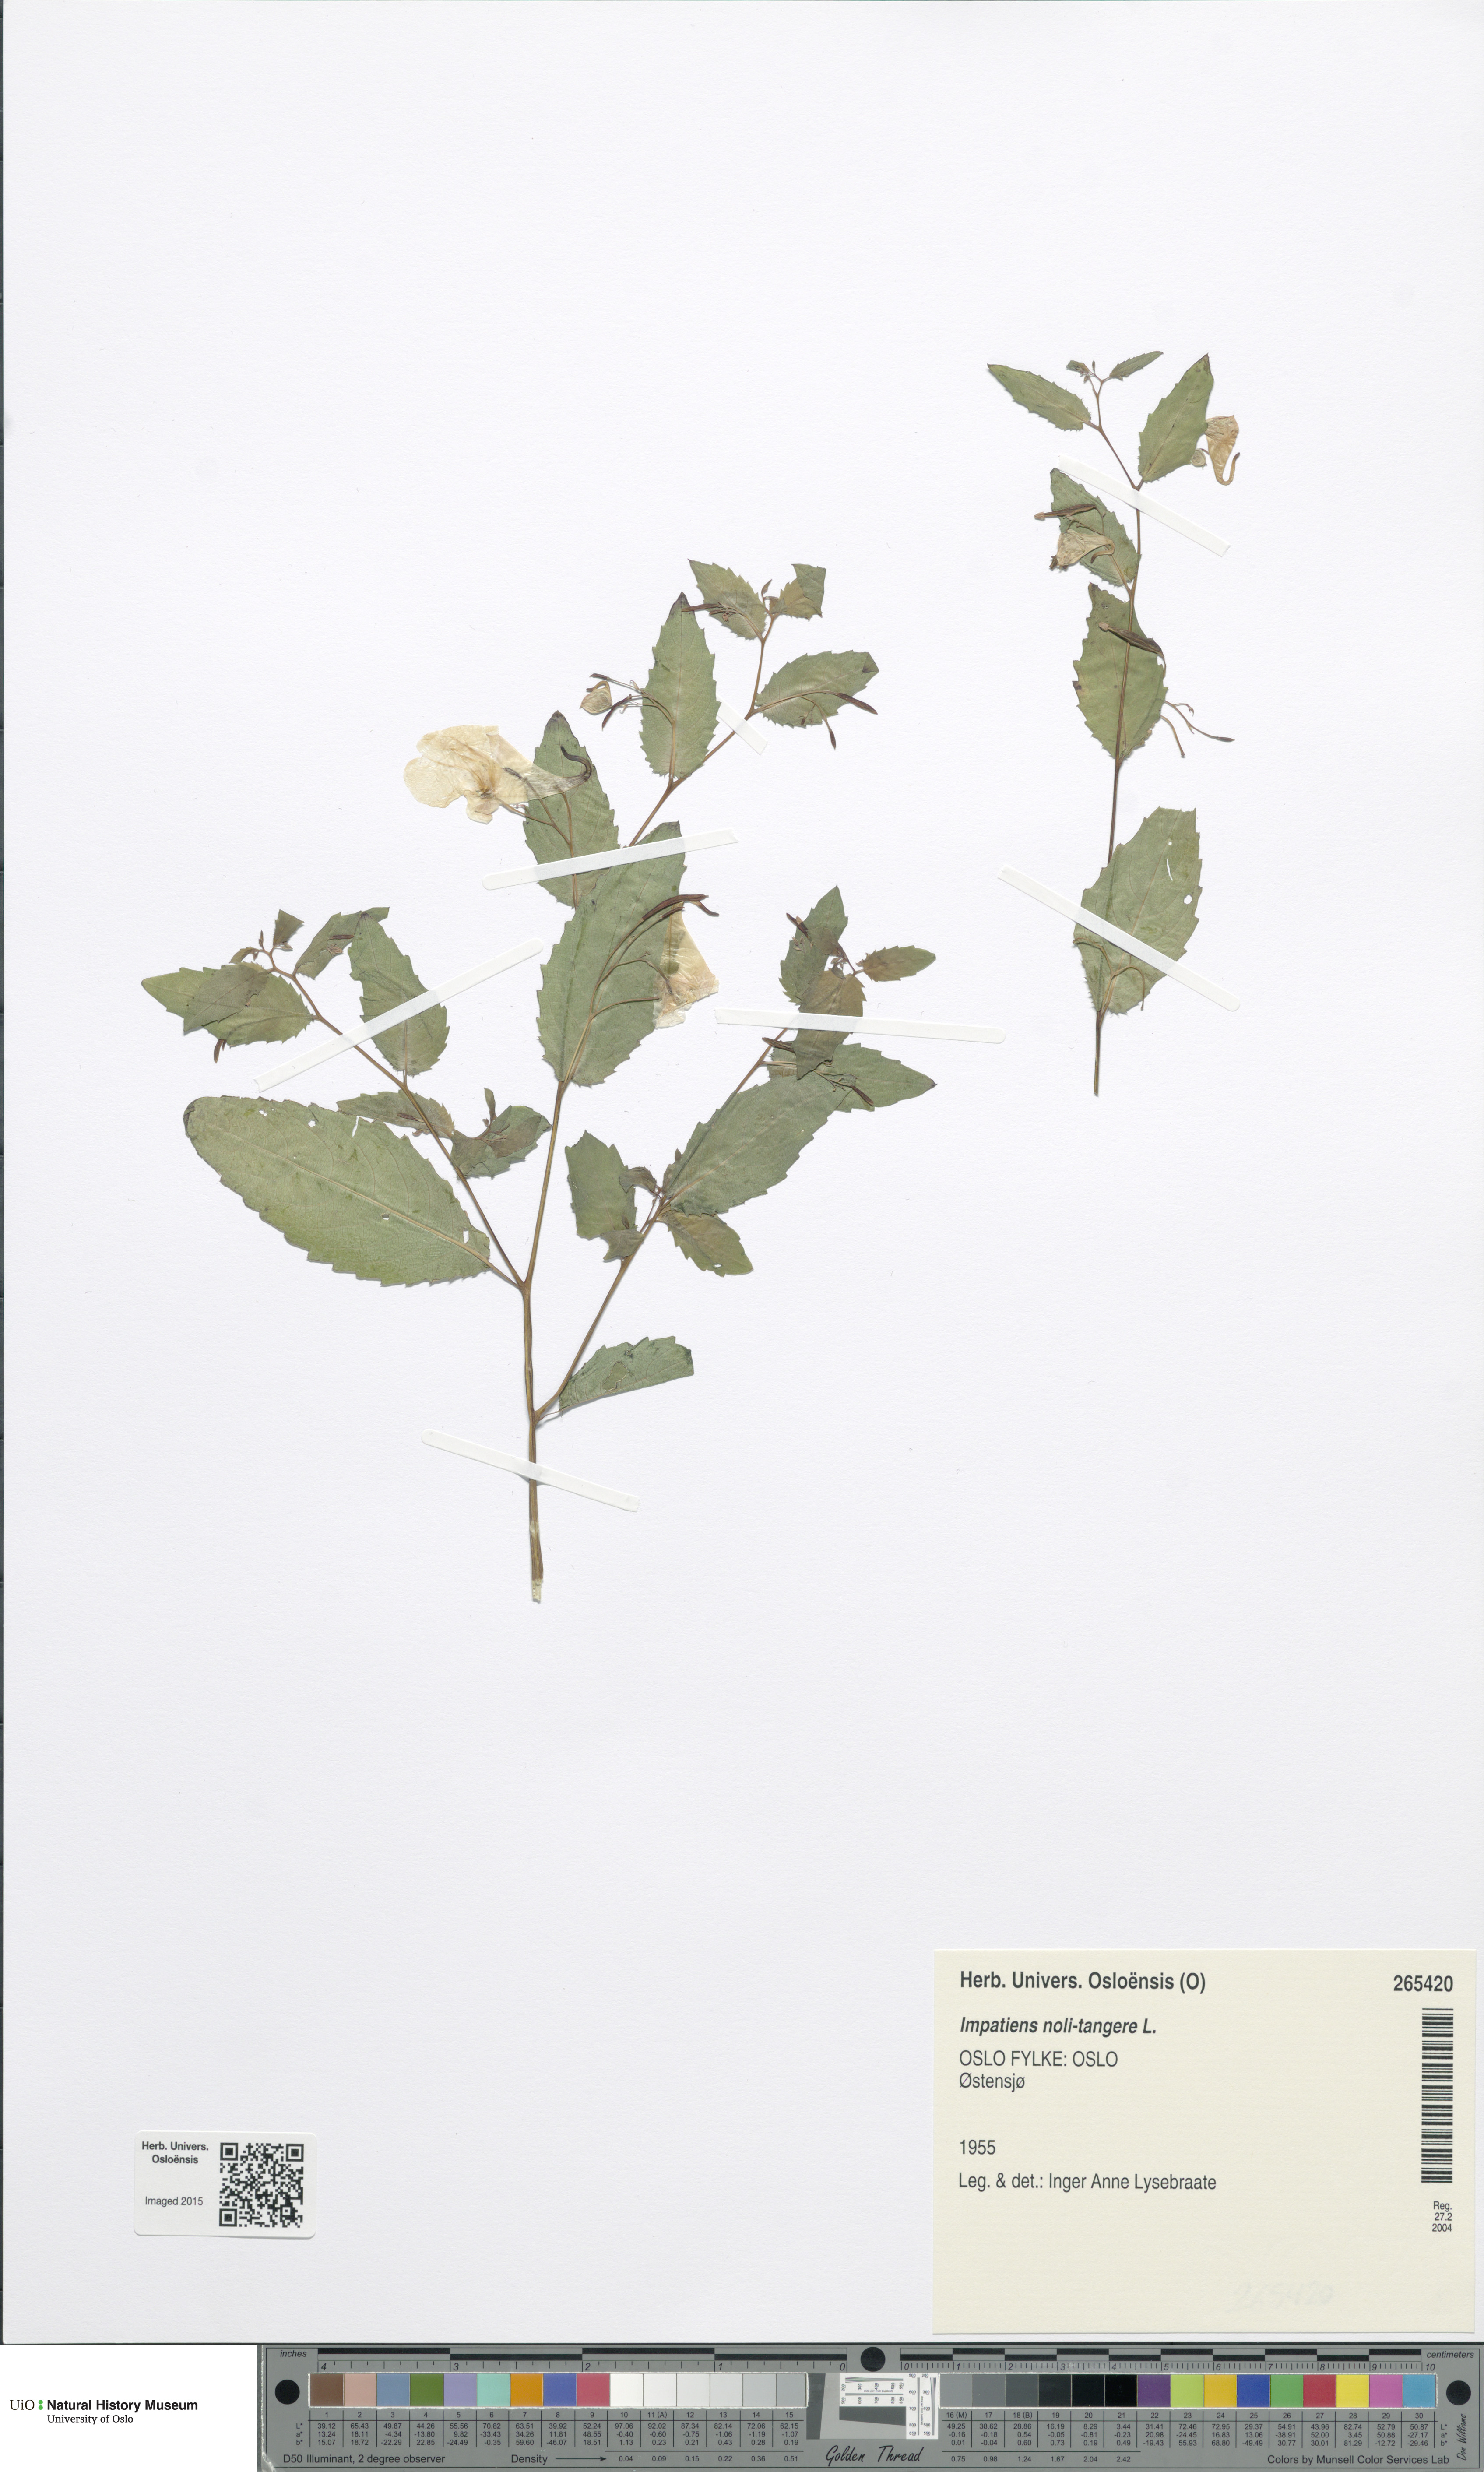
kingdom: Plantae
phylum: Tracheophyta
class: Magnoliopsida
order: Ericales
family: Balsaminaceae
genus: Impatiens
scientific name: Impatiens noli-tangere
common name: Touch-me-not balsam
